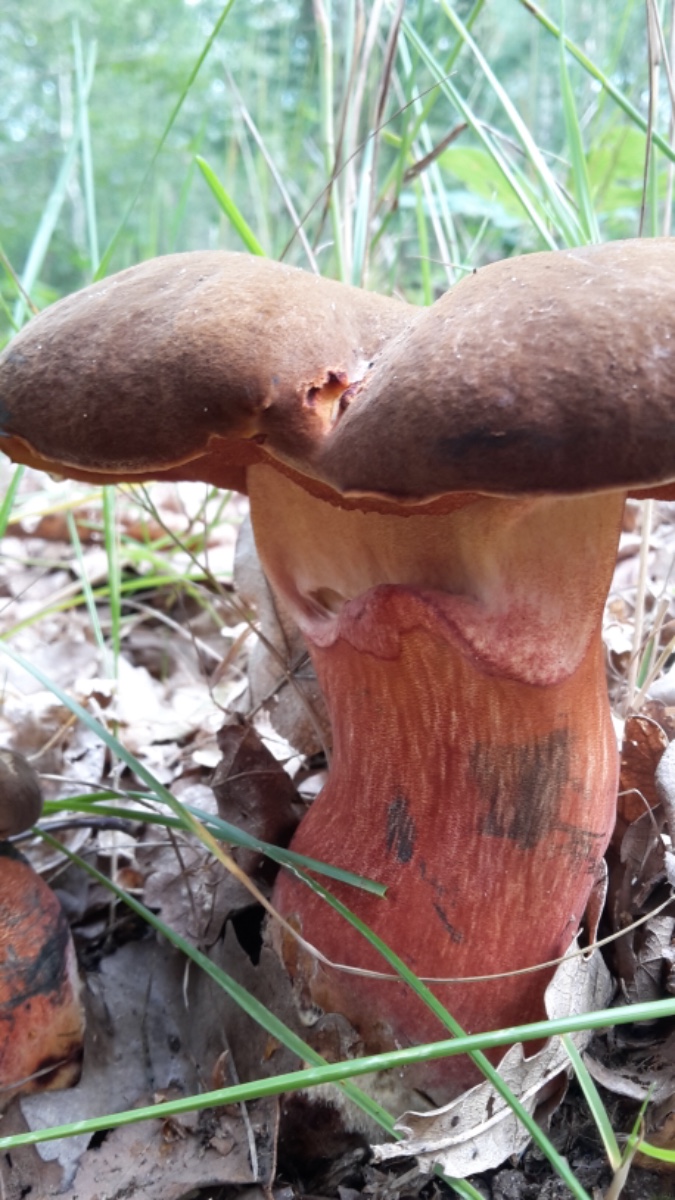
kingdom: Fungi
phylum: Basidiomycota
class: Agaricomycetes
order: Boletales
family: Boletaceae
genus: Neoboletus
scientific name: Neoboletus erythropus
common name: punktstokket indigorørhat
